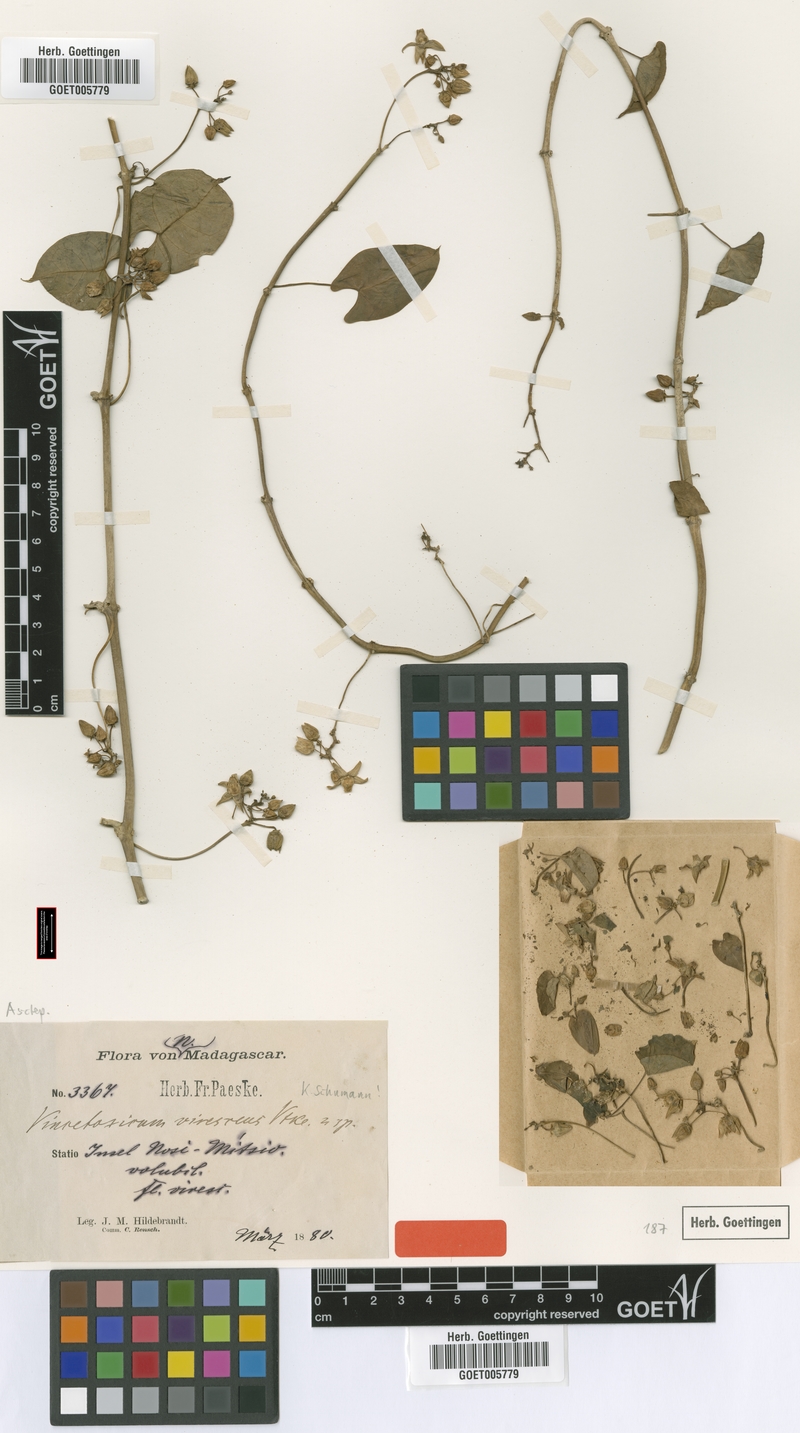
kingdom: Plantae
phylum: Tracheophyta
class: Magnoliopsida
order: Gentianales
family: Apocynaceae
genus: Cynanchum
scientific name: Cynanchum eurychiton
